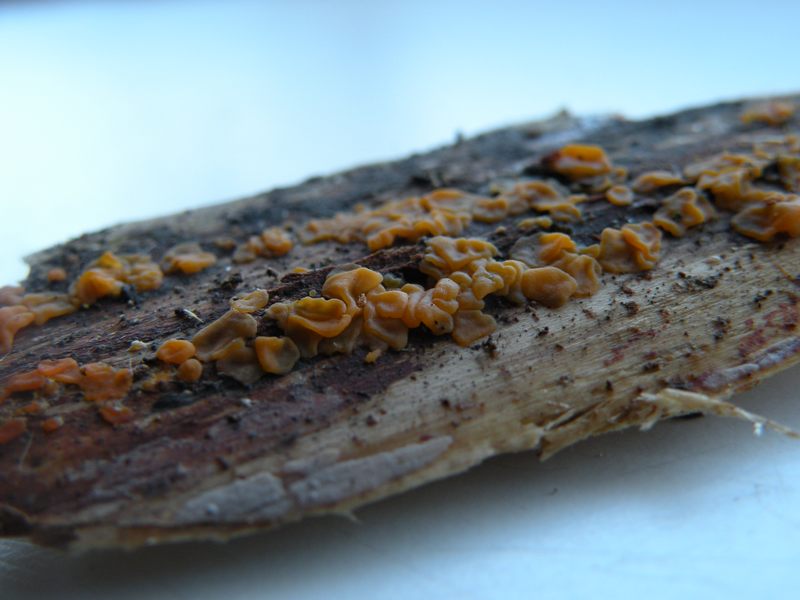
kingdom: Fungi
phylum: Basidiomycota
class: Dacrymycetes
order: Dacrymycetales
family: Dacrymycetaceae
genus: Dacrymyces
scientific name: Dacrymyces stillatus
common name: almindelig tåresvamp
